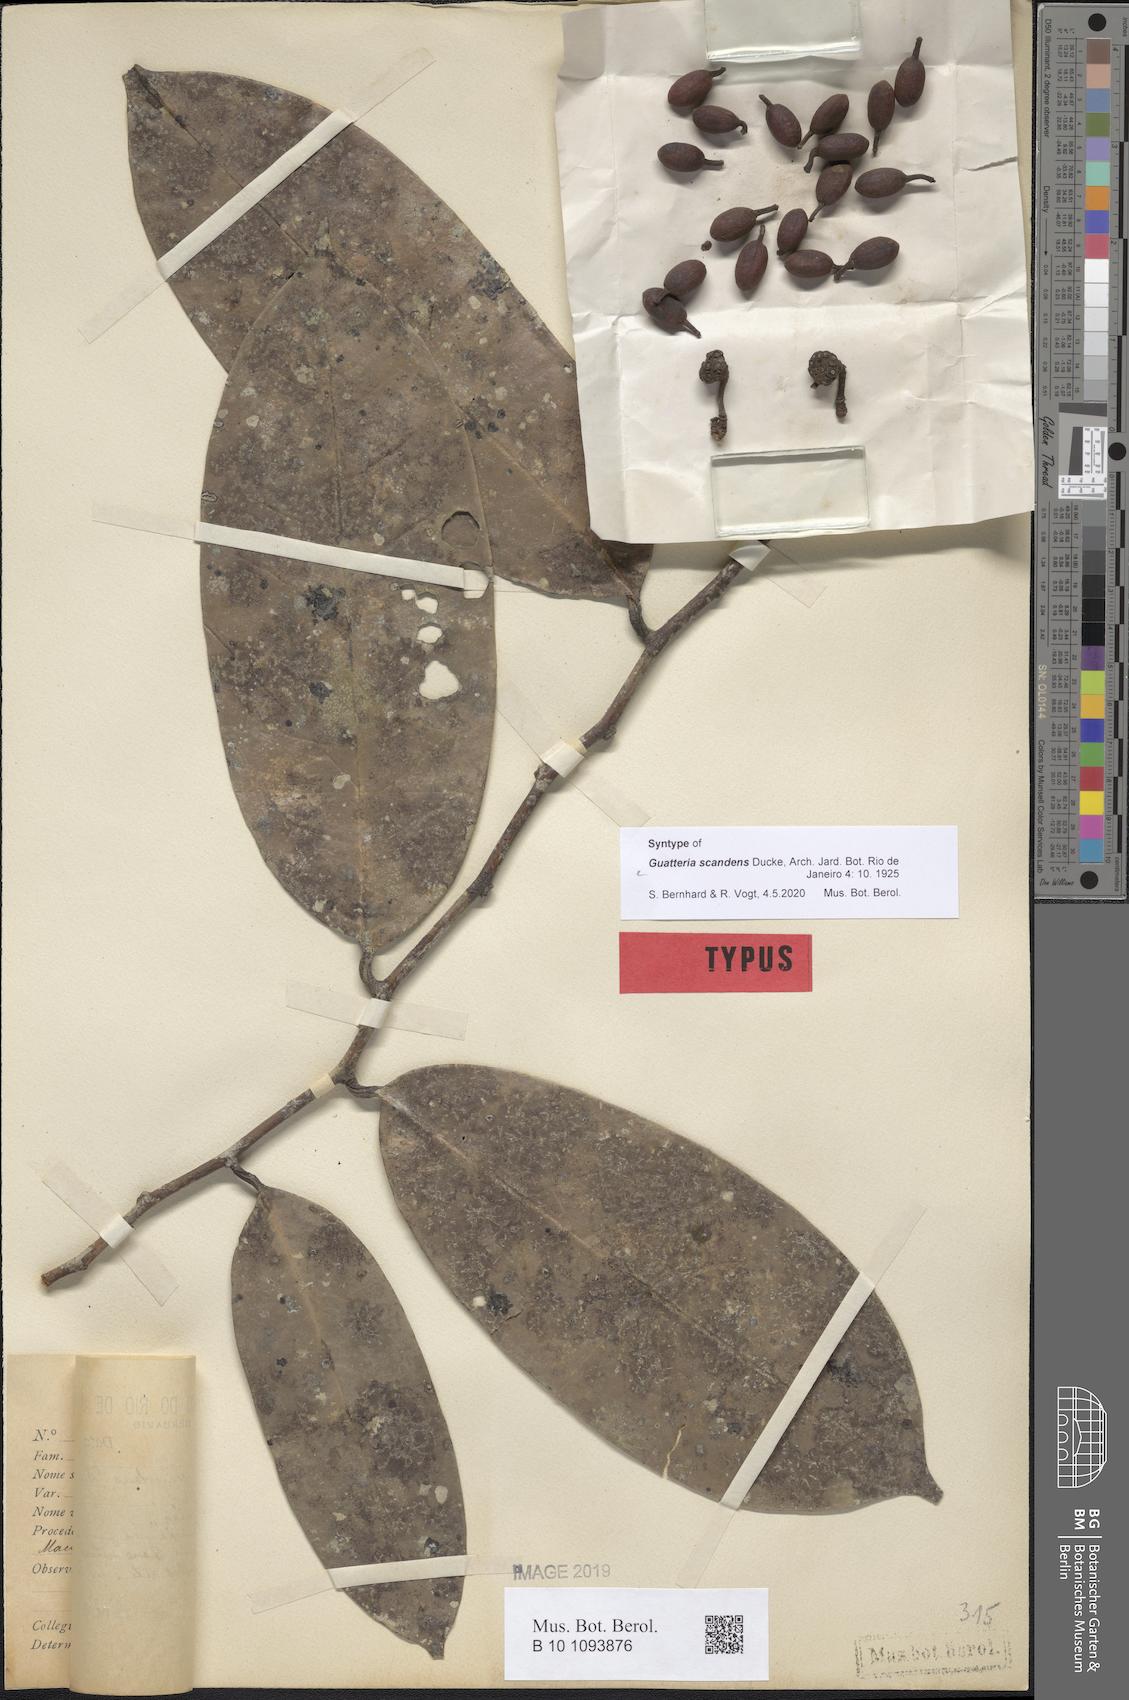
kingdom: Plantae
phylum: Tracheophyta
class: Magnoliopsida
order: Magnoliales
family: Annonaceae
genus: Guatteria
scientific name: Guatteria scandens
